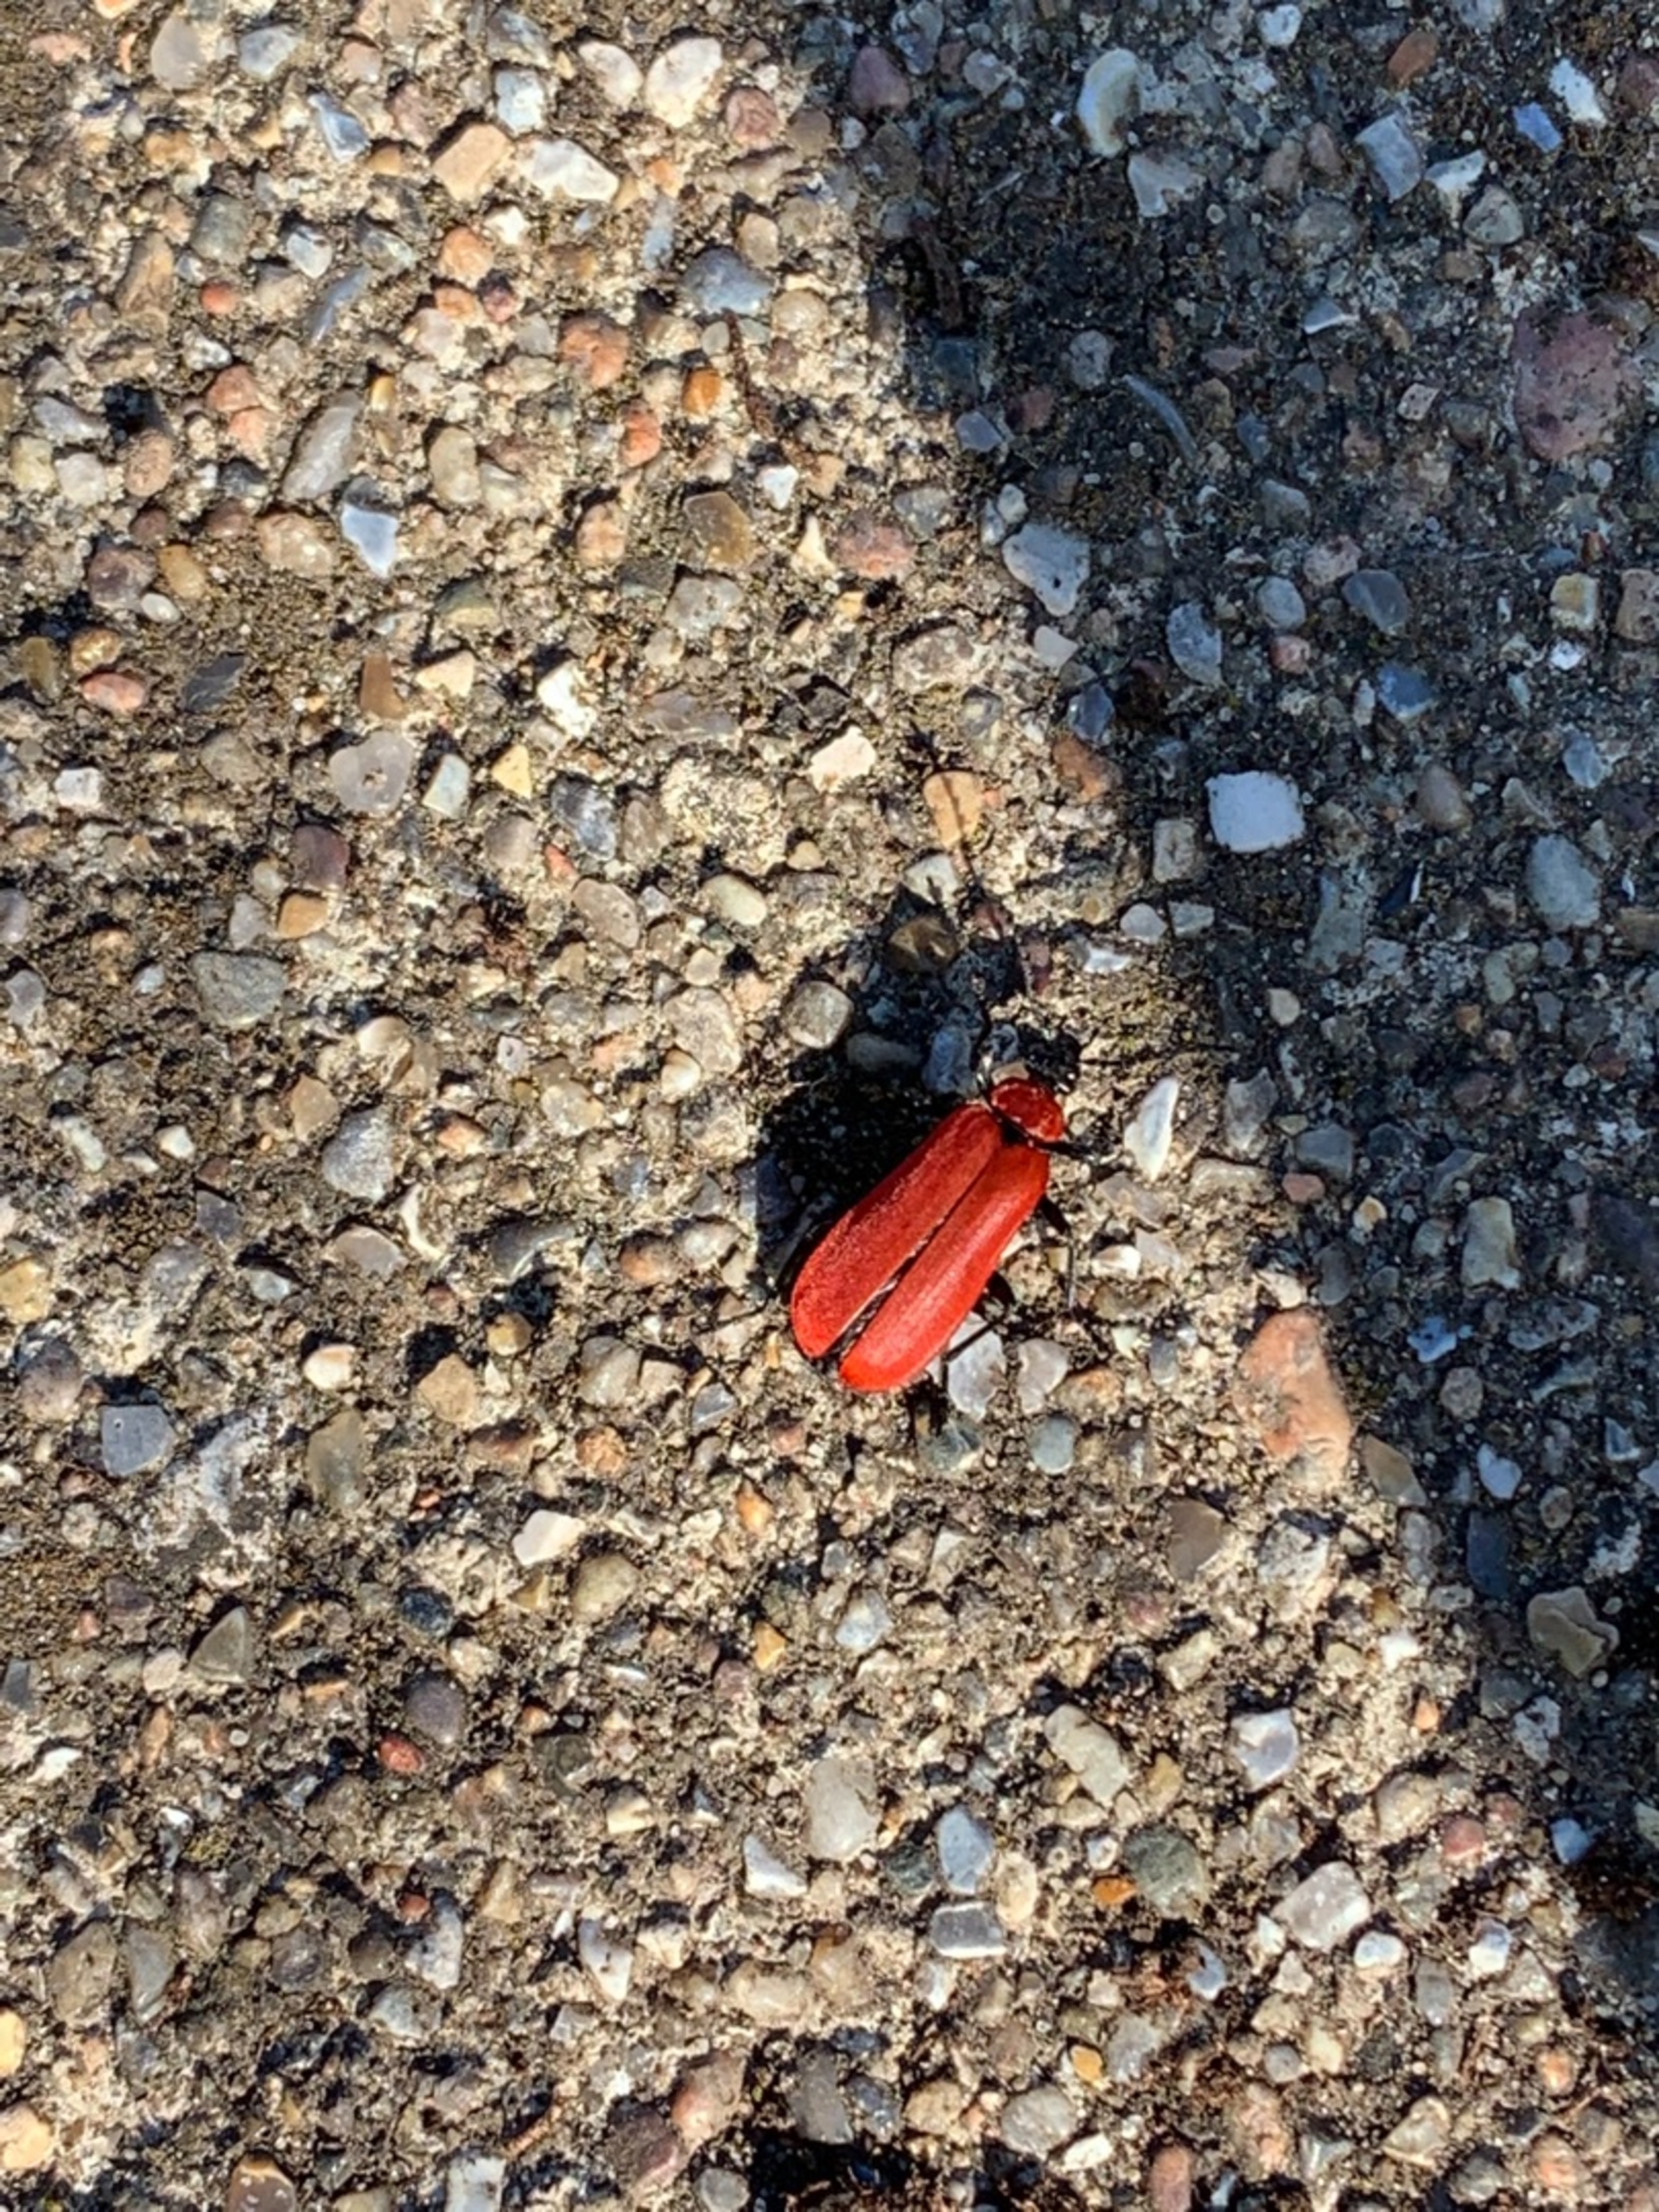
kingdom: Animalia
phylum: Arthropoda
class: Insecta
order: Coleoptera
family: Pyrochroidae
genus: Pyrochroa
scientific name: Pyrochroa coccinea
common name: Sorthovedet kardinalbille
